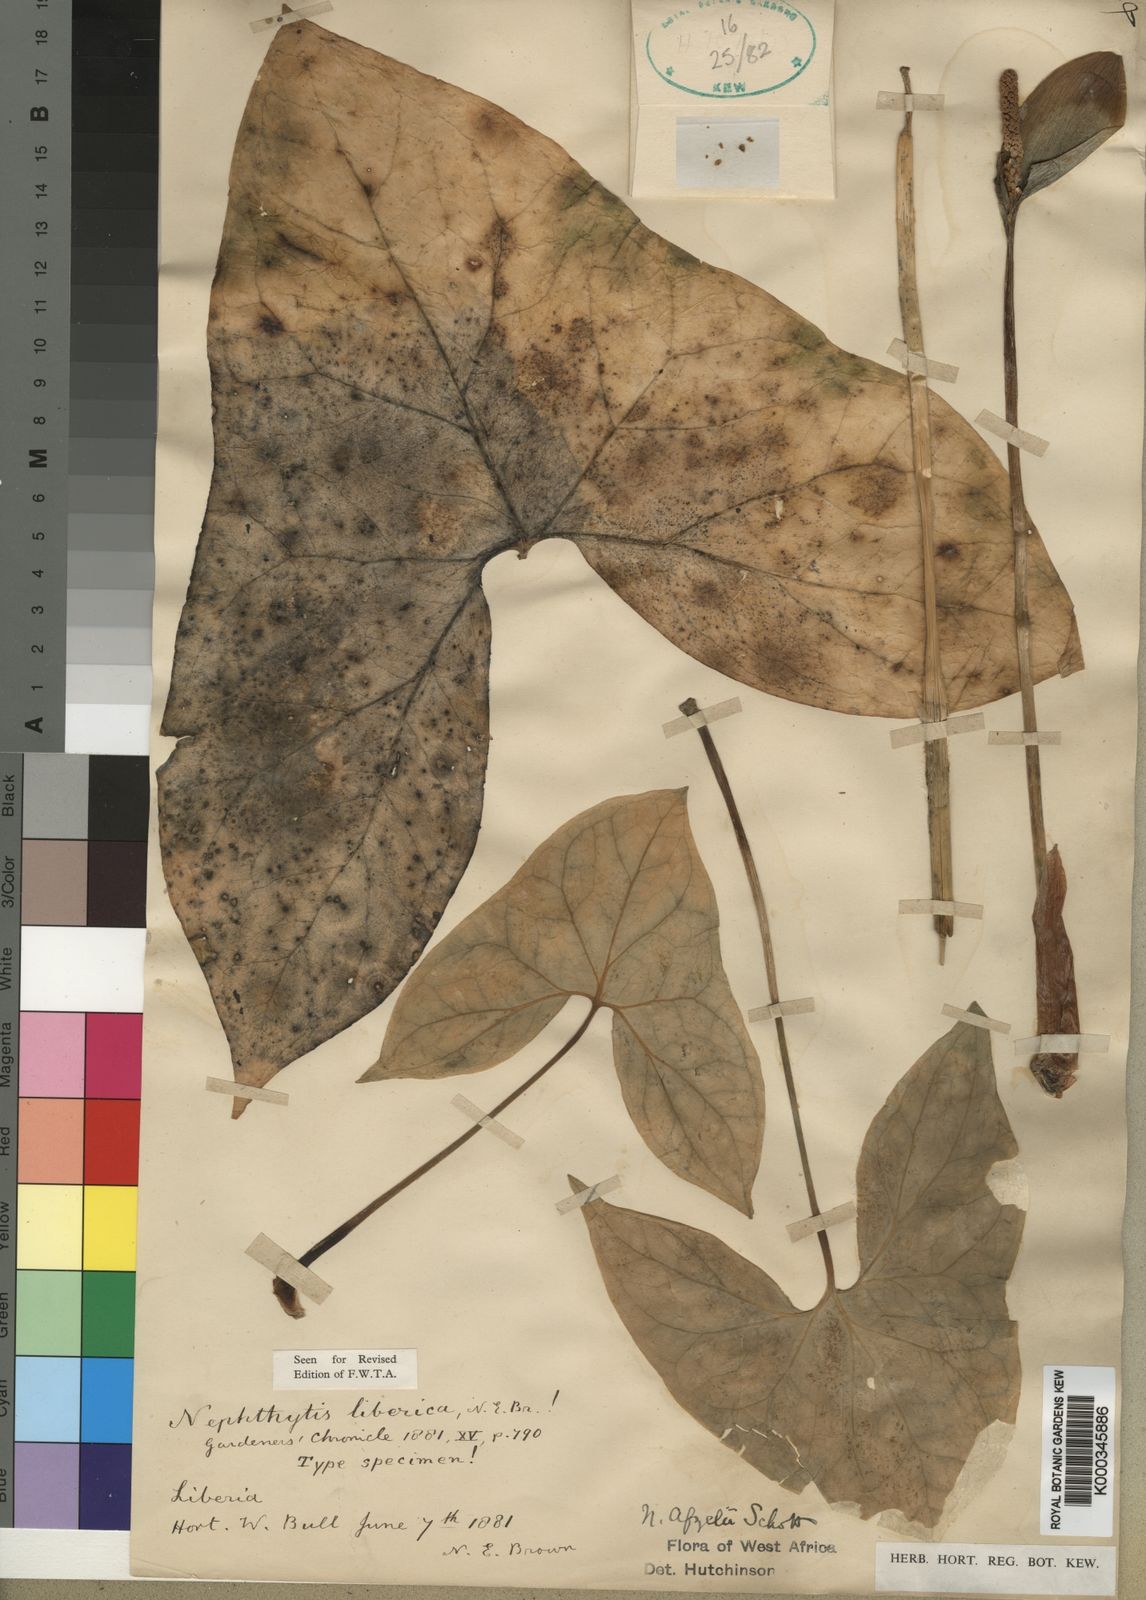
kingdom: Plantae
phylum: Tracheophyta
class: Liliopsida
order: Alismatales
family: Araceae
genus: Nephthytis
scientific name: Nephthytis afzelii
